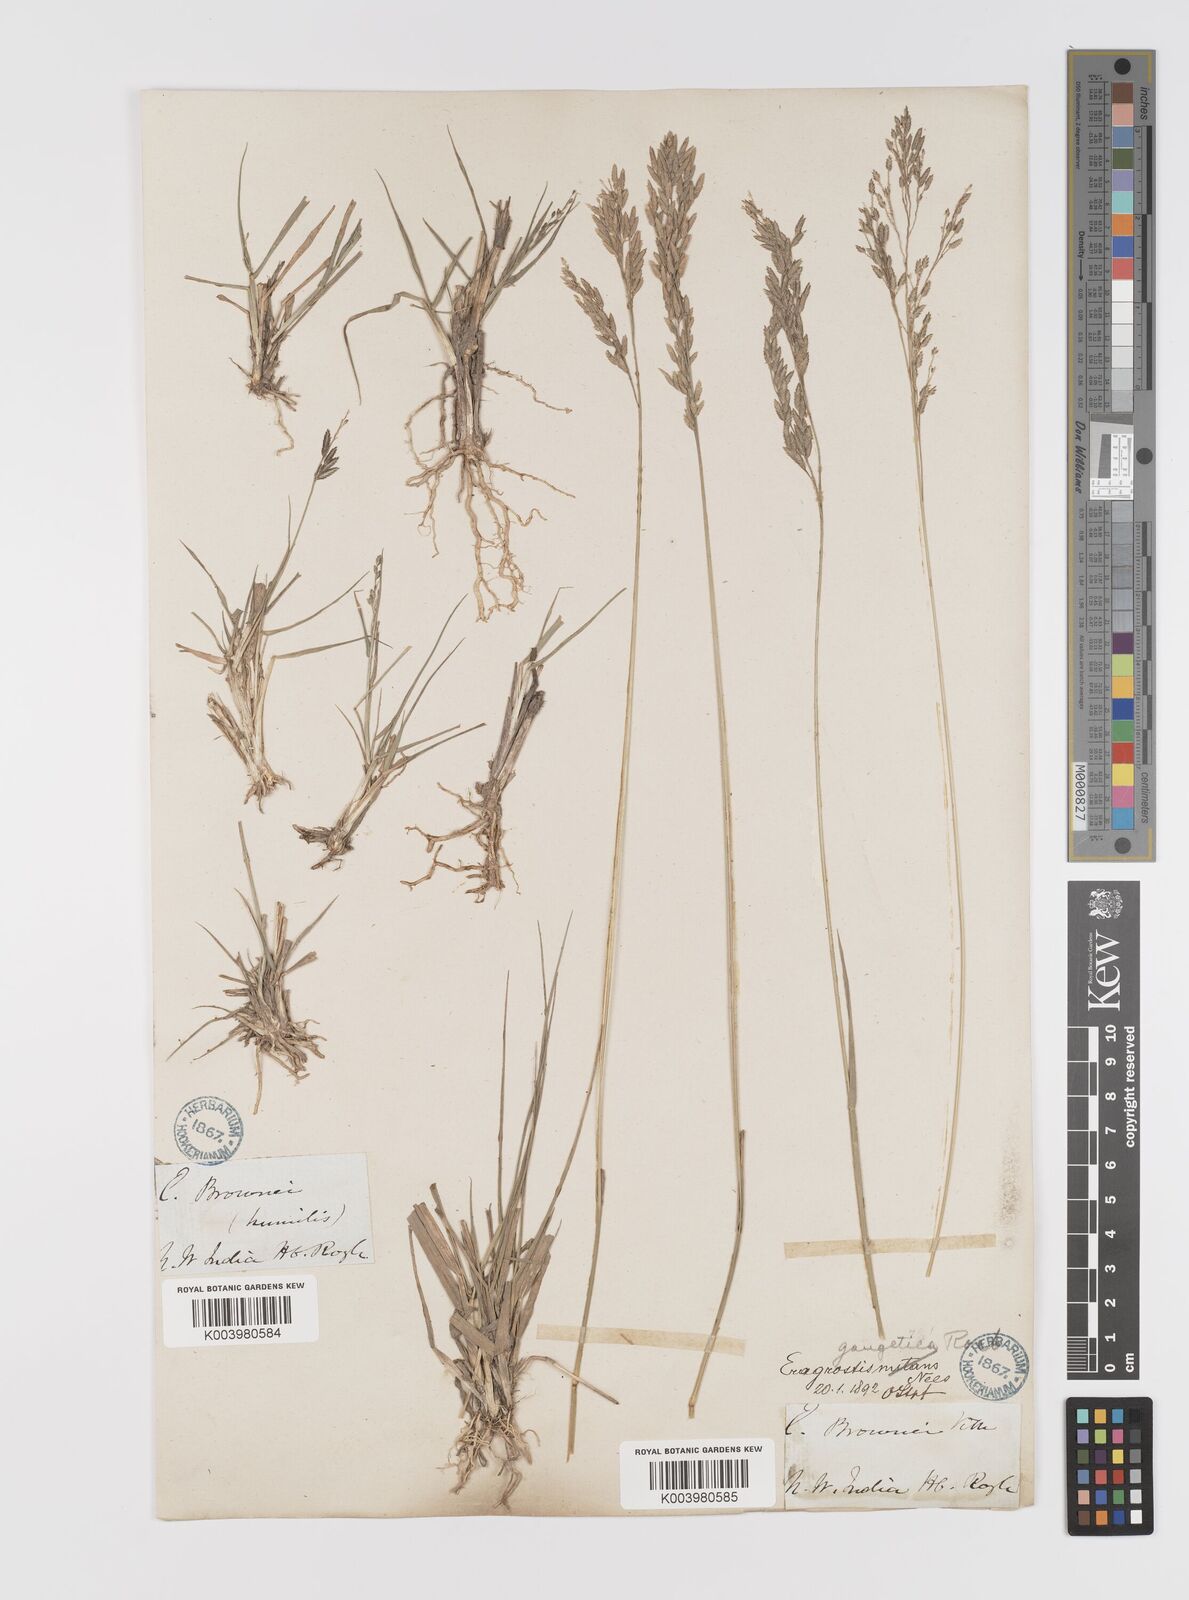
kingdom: Plantae
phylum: Tracheophyta
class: Liliopsida
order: Poales
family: Poaceae
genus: Eragrostis
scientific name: Eragrostis atrovirens
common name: Thalia lovegrass
